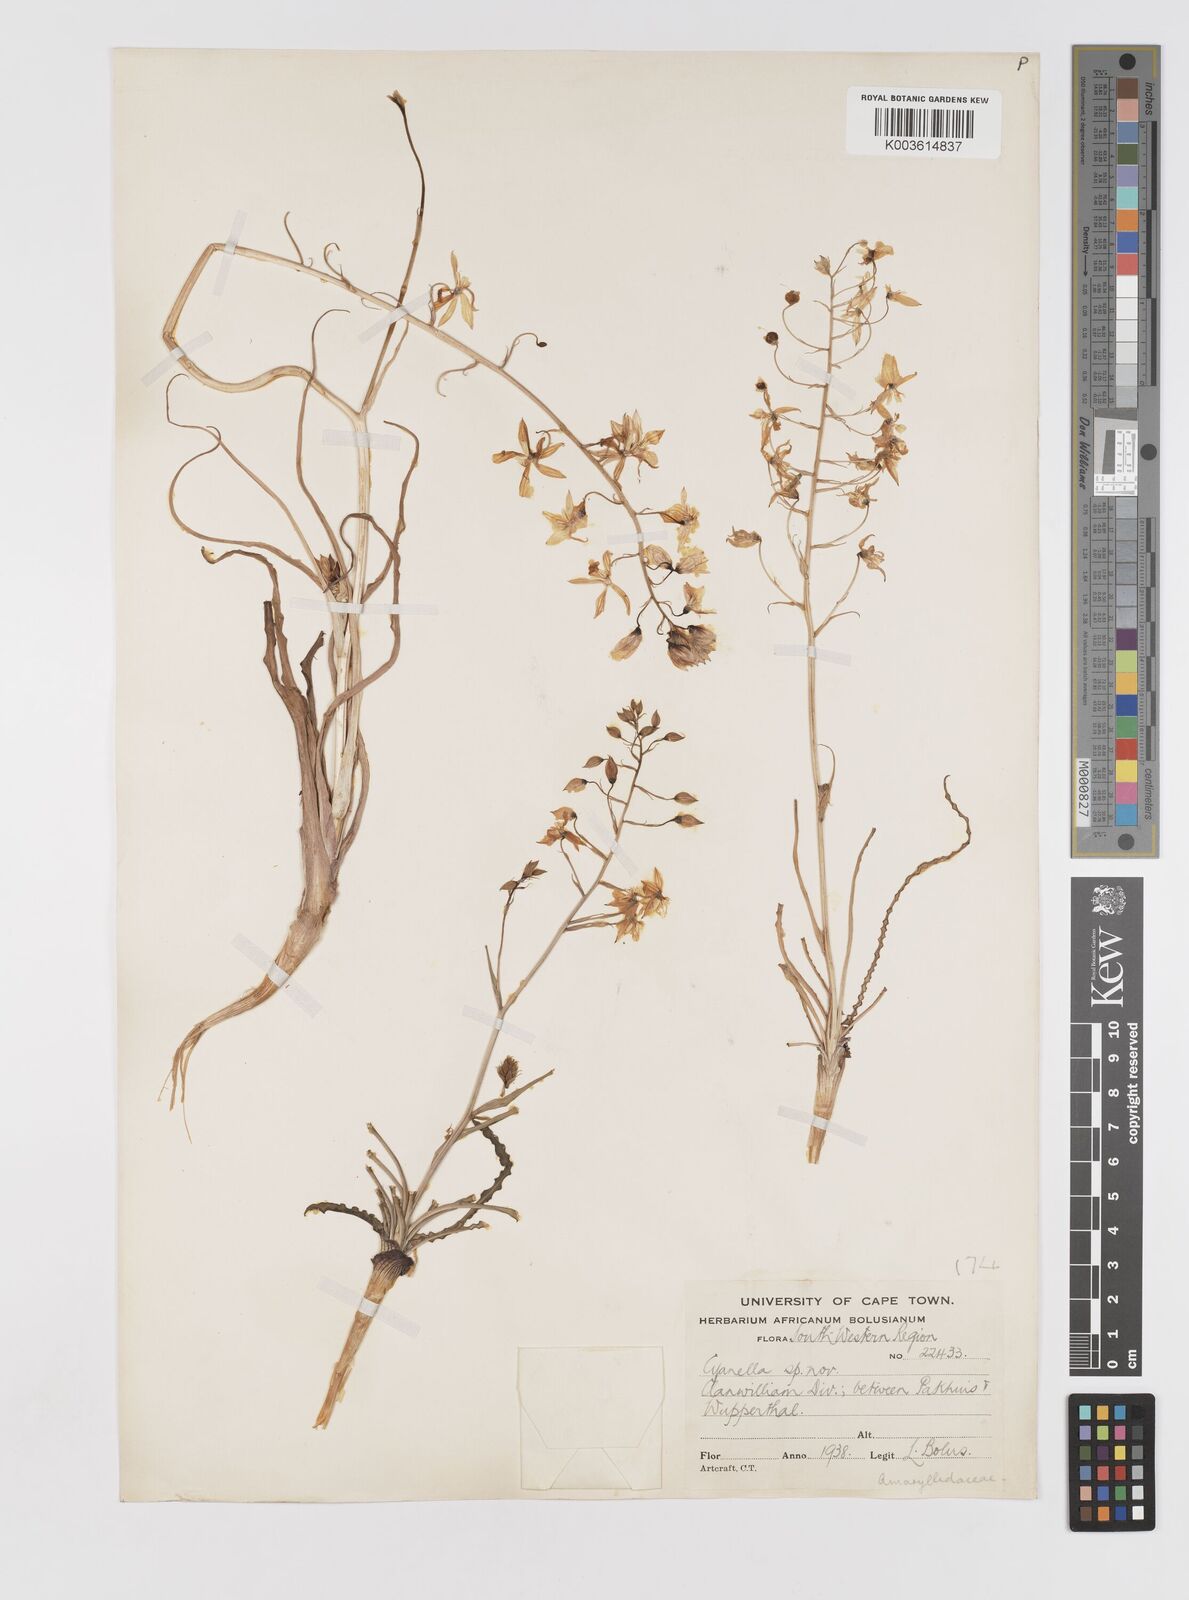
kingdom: Plantae
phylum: Tracheophyta
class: Liliopsida
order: Asparagales
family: Tecophilaeaceae
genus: Cyanella
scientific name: Cyanella
